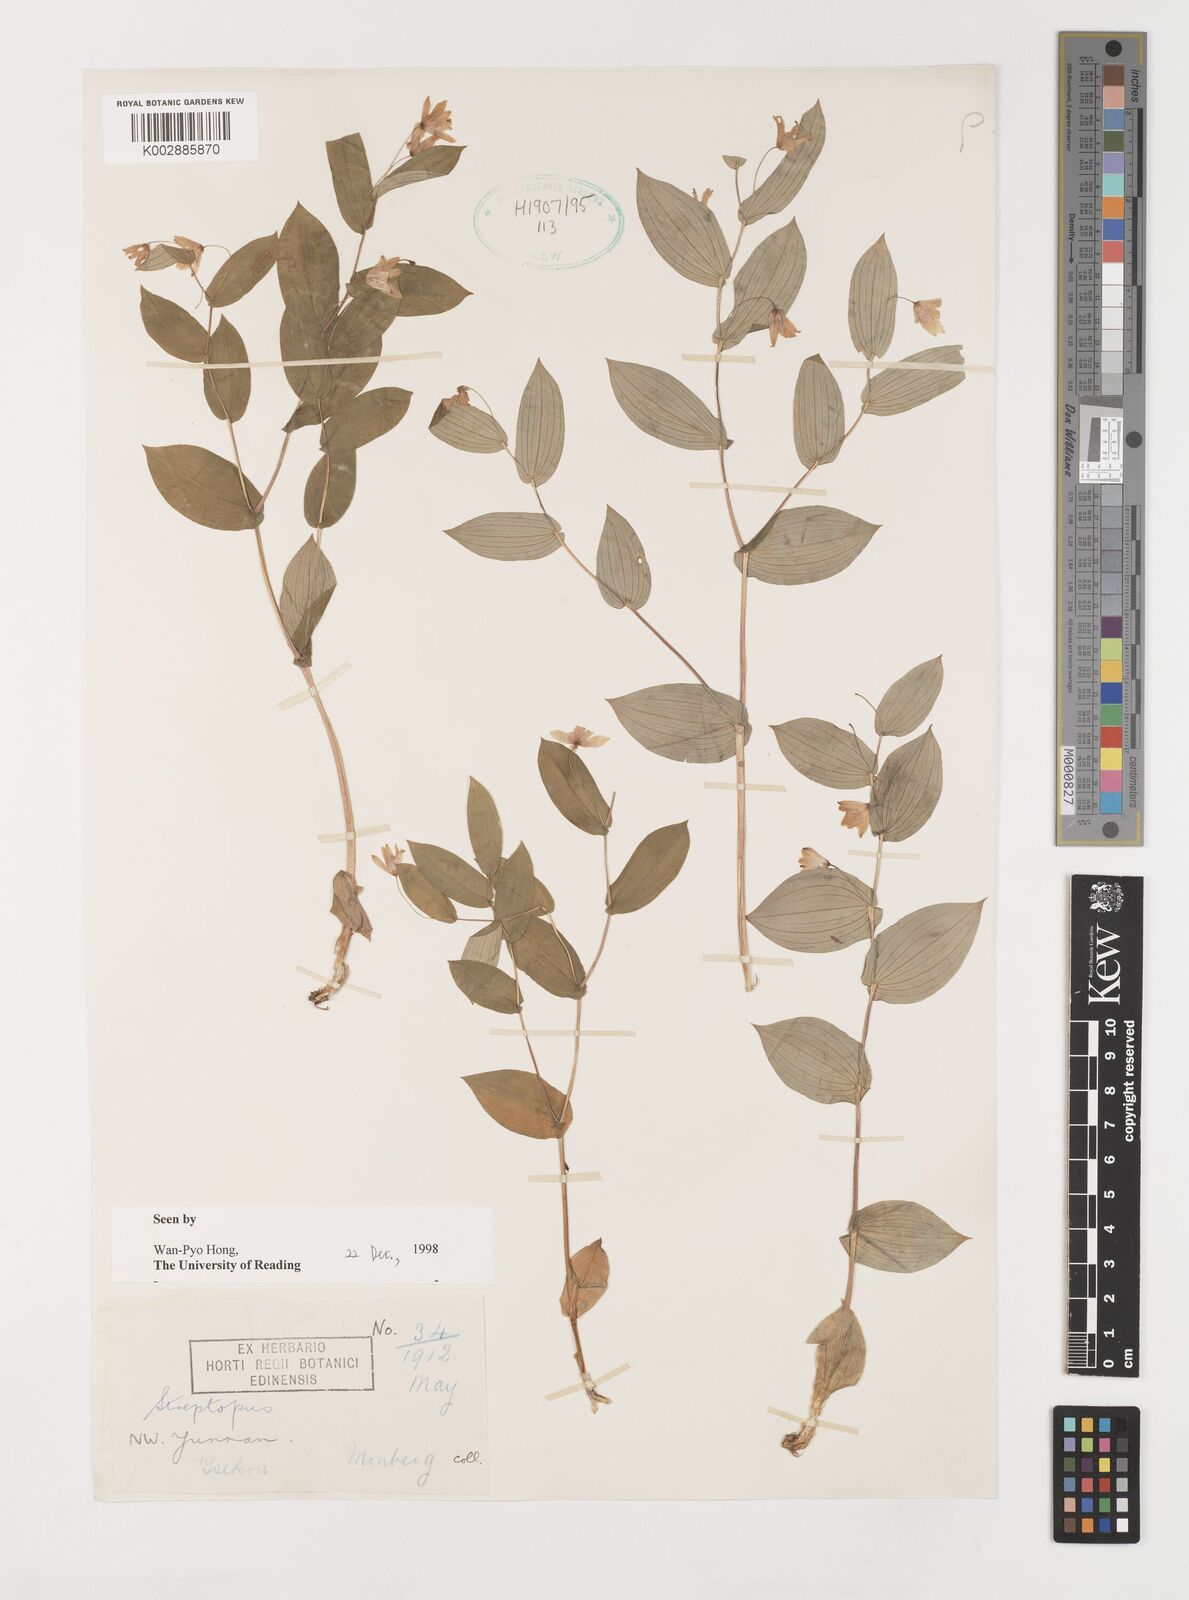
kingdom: Plantae
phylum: Tracheophyta
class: Liliopsida
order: Liliales
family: Liliaceae
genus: Streptopus
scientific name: Streptopus
